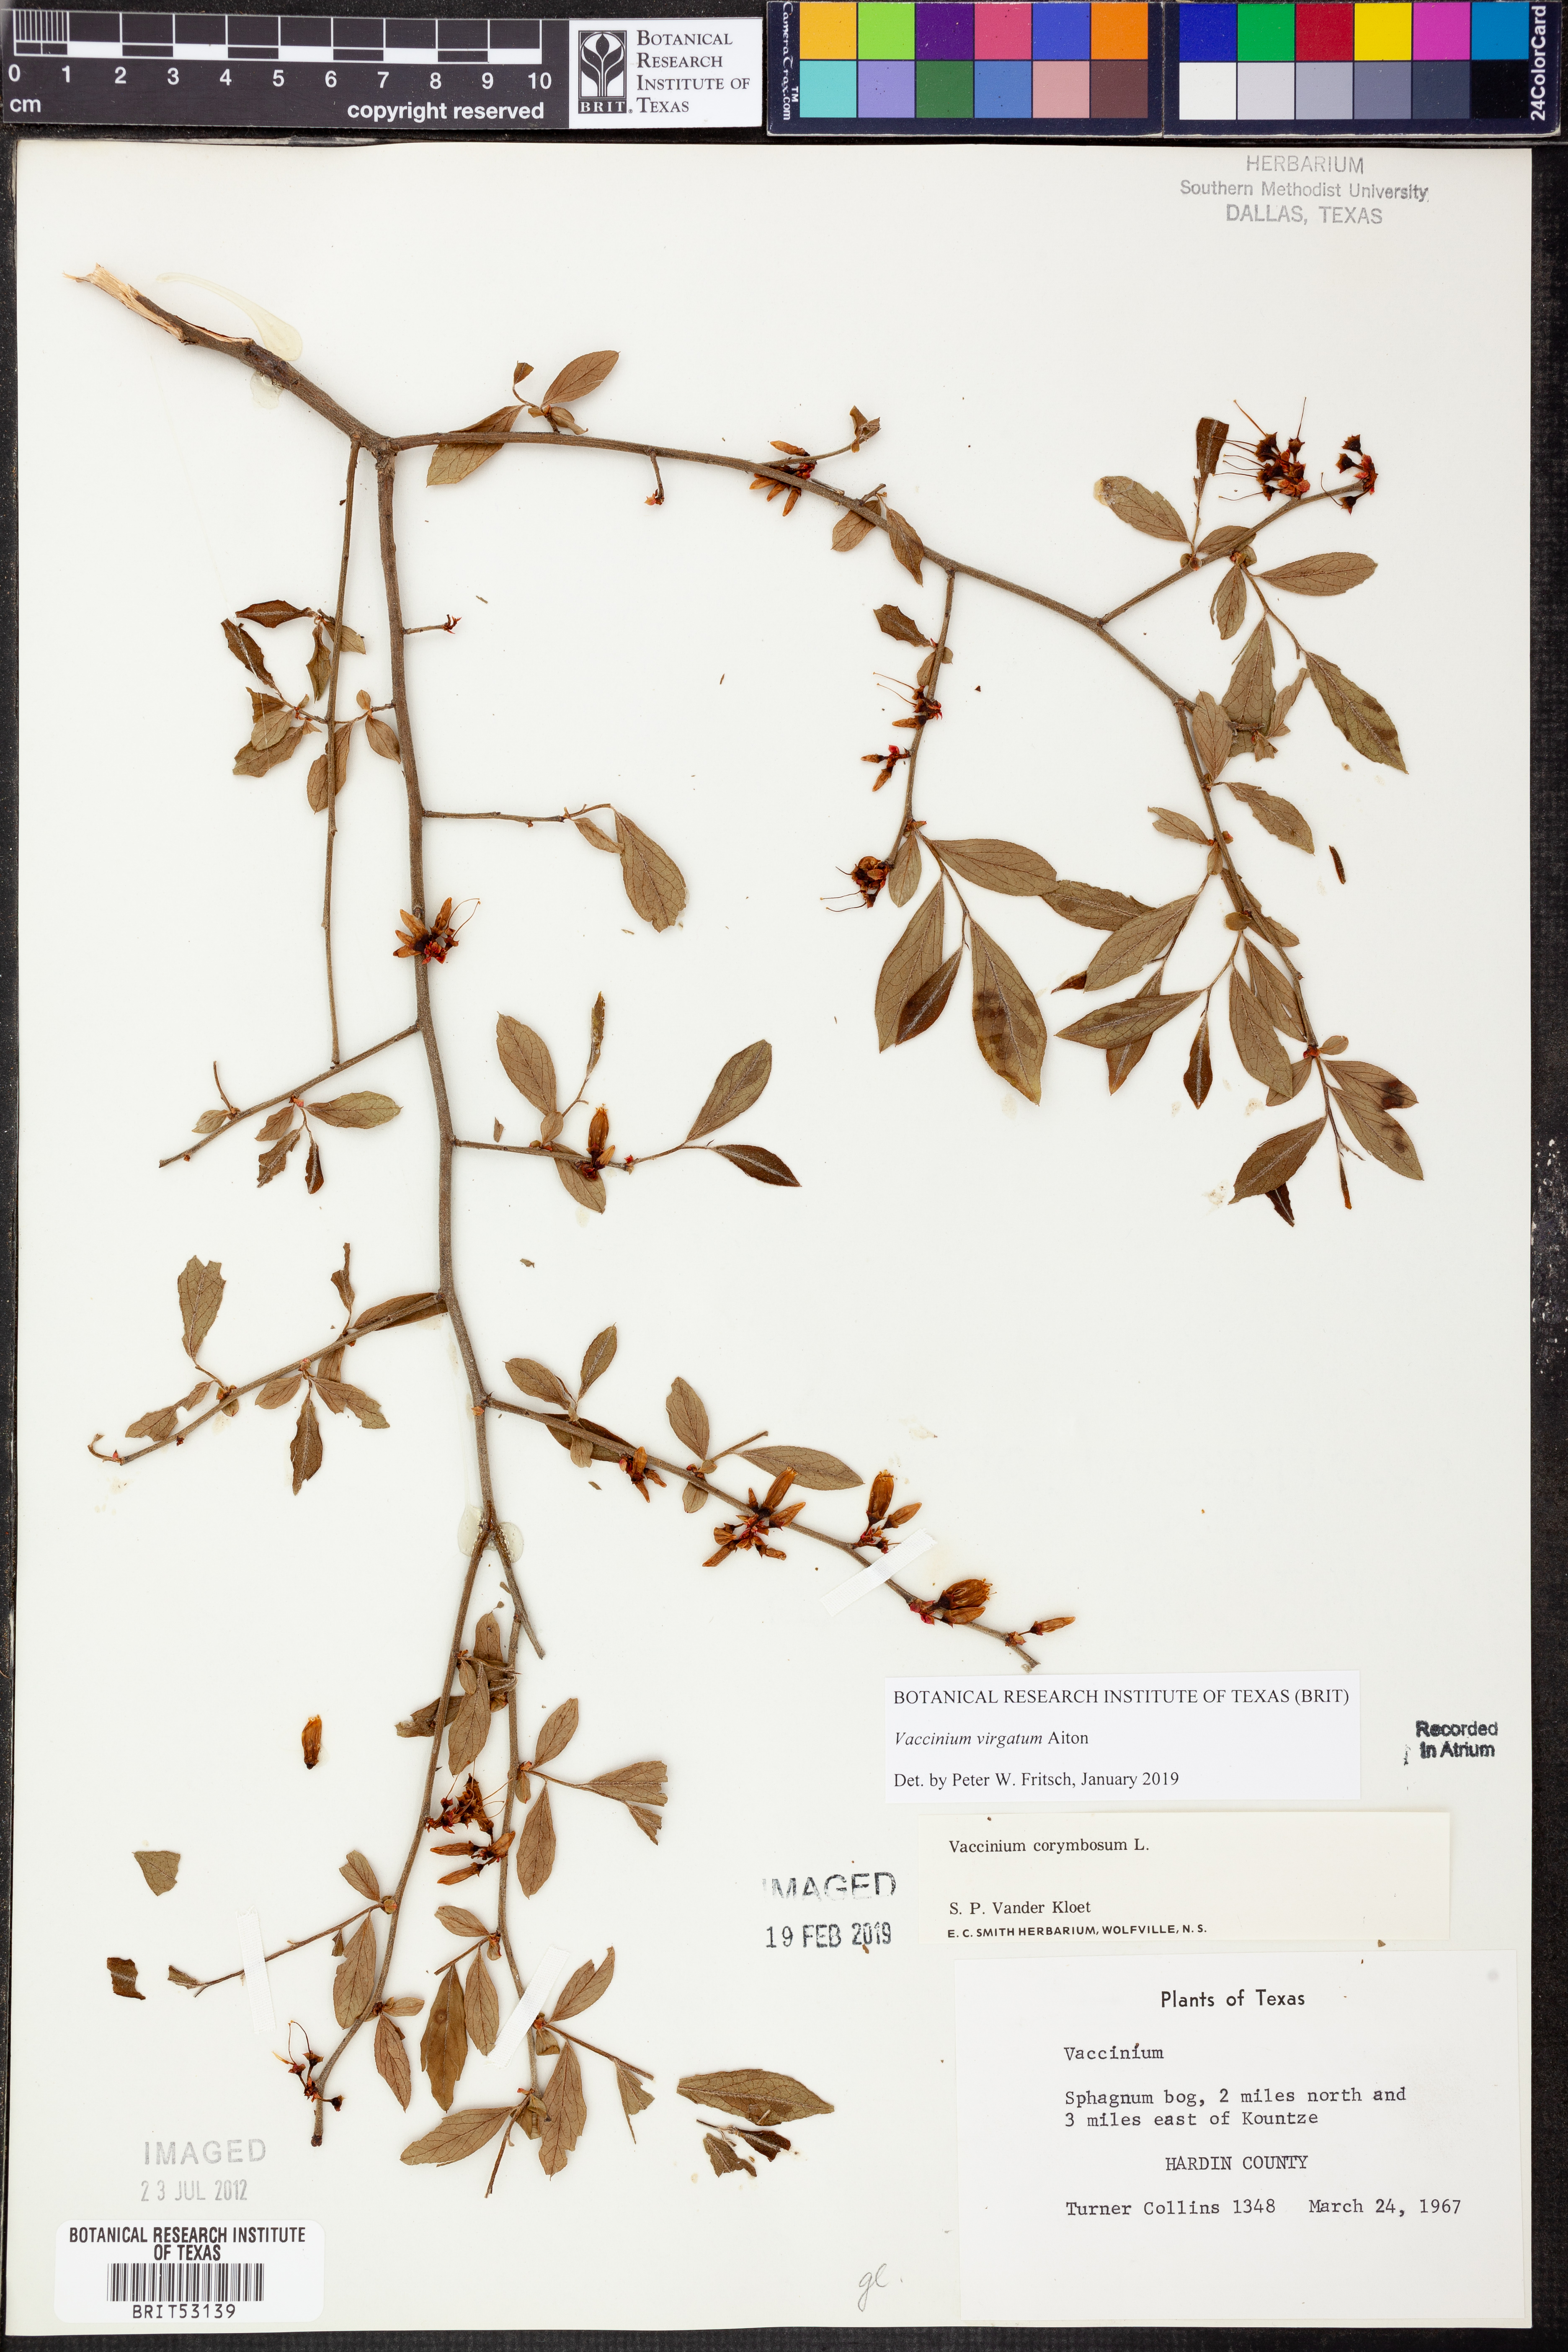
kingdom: Plantae
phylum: Tracheophyta
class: Magnoliopsida
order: Ericales
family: Ericaceae
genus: Vaccinium
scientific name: Vaccinium corymbosum
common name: Blueberry
